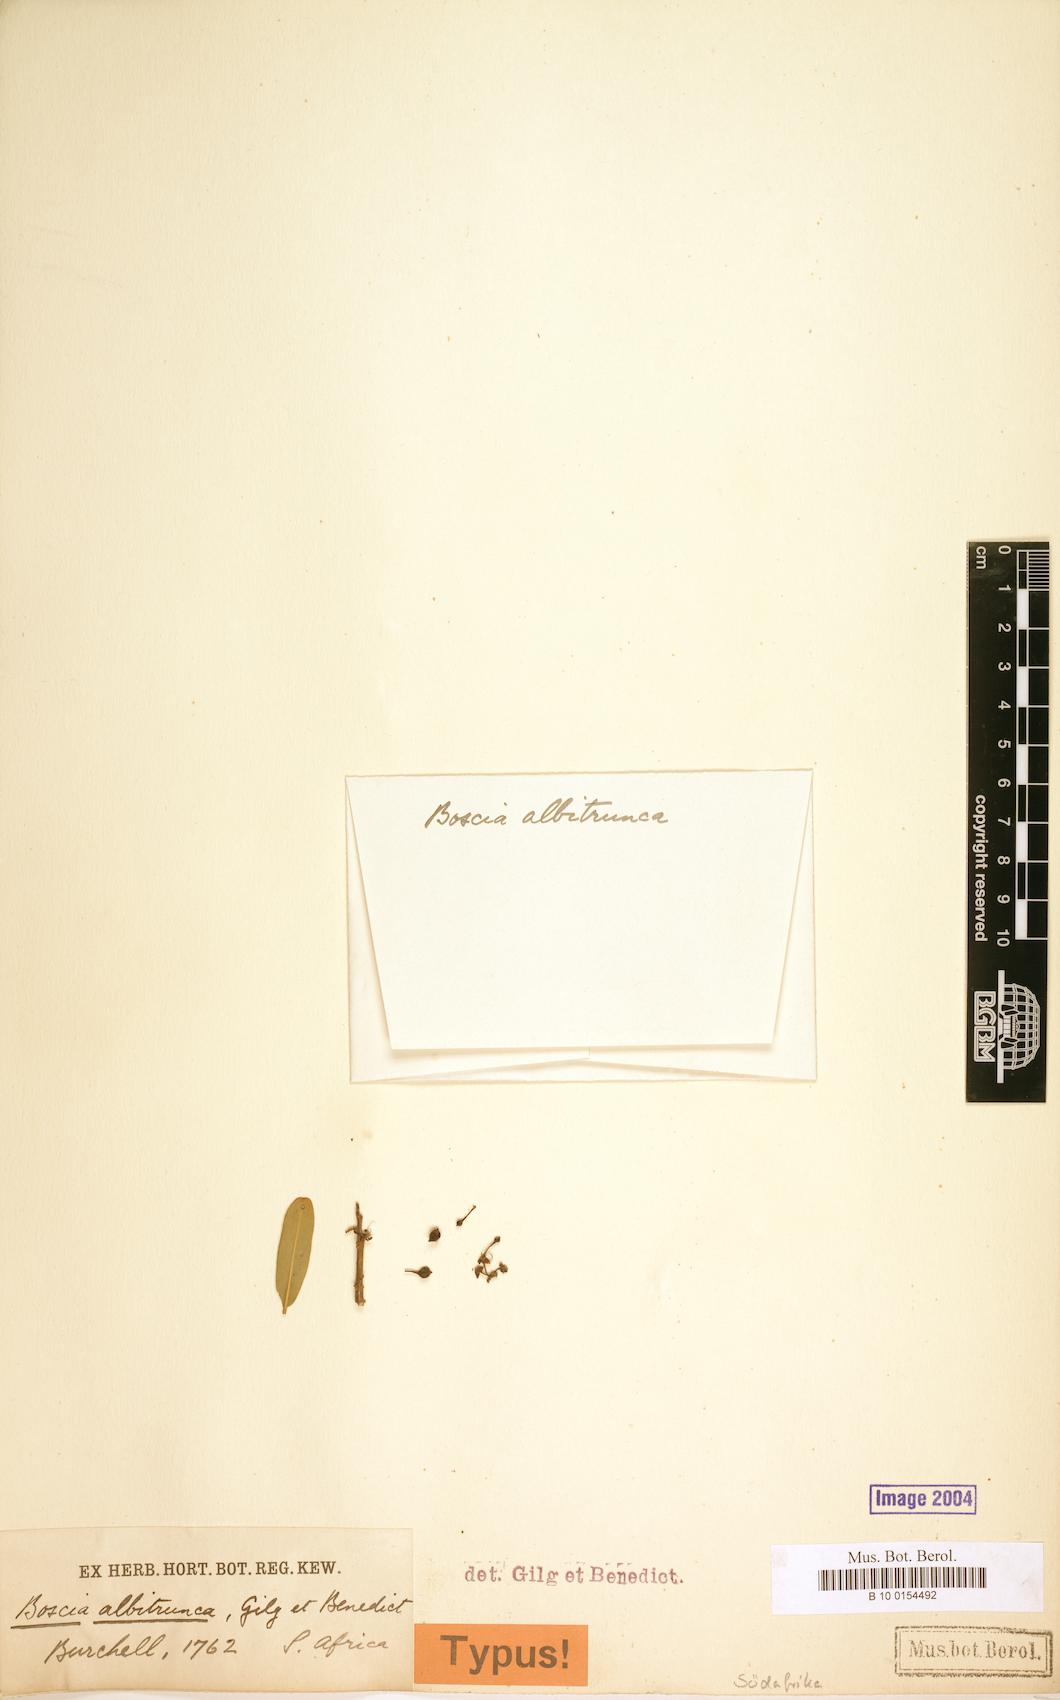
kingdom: Plantae
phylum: Tracheophyta
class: Magnoliopsida
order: Brassicales
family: Capparaceae
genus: Boscia
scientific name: Boscia albitrunca
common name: Caper bush
